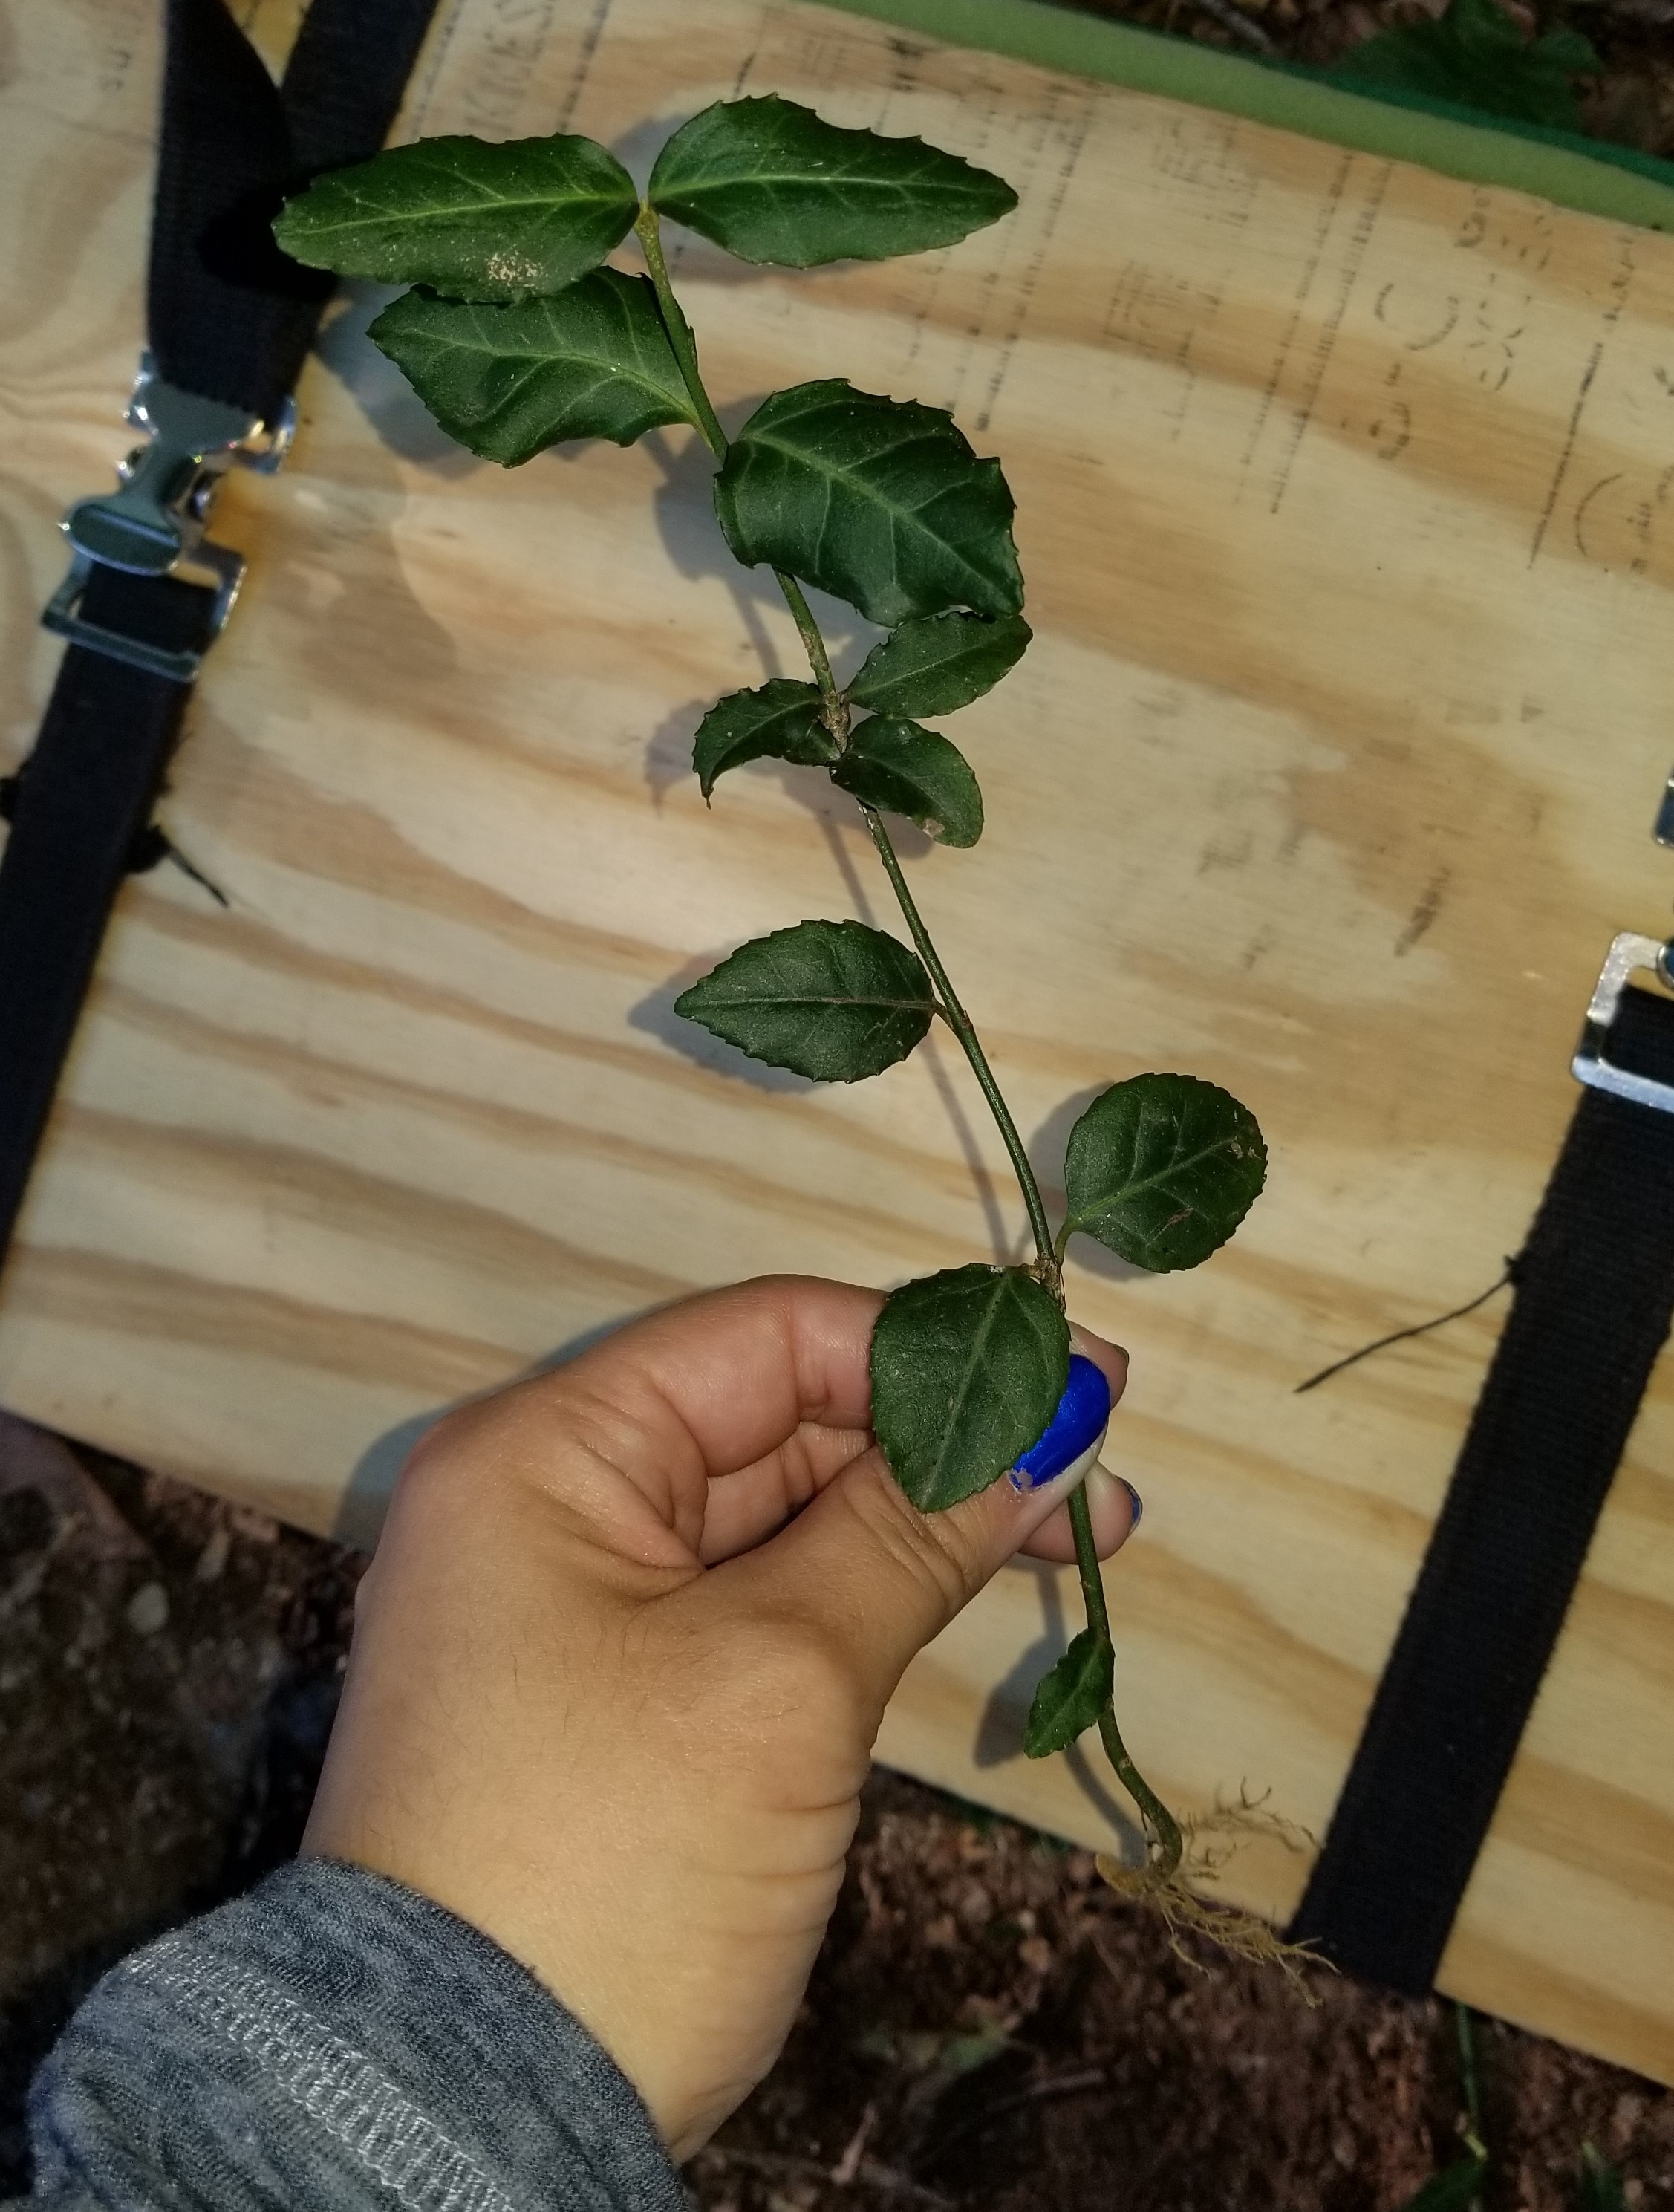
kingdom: Plantae
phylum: Tracheophyta
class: Magnoliopsida
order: Celastrales
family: Celastraceae
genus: Euonymus
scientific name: Euonymus fortunei
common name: Wintercreeper
